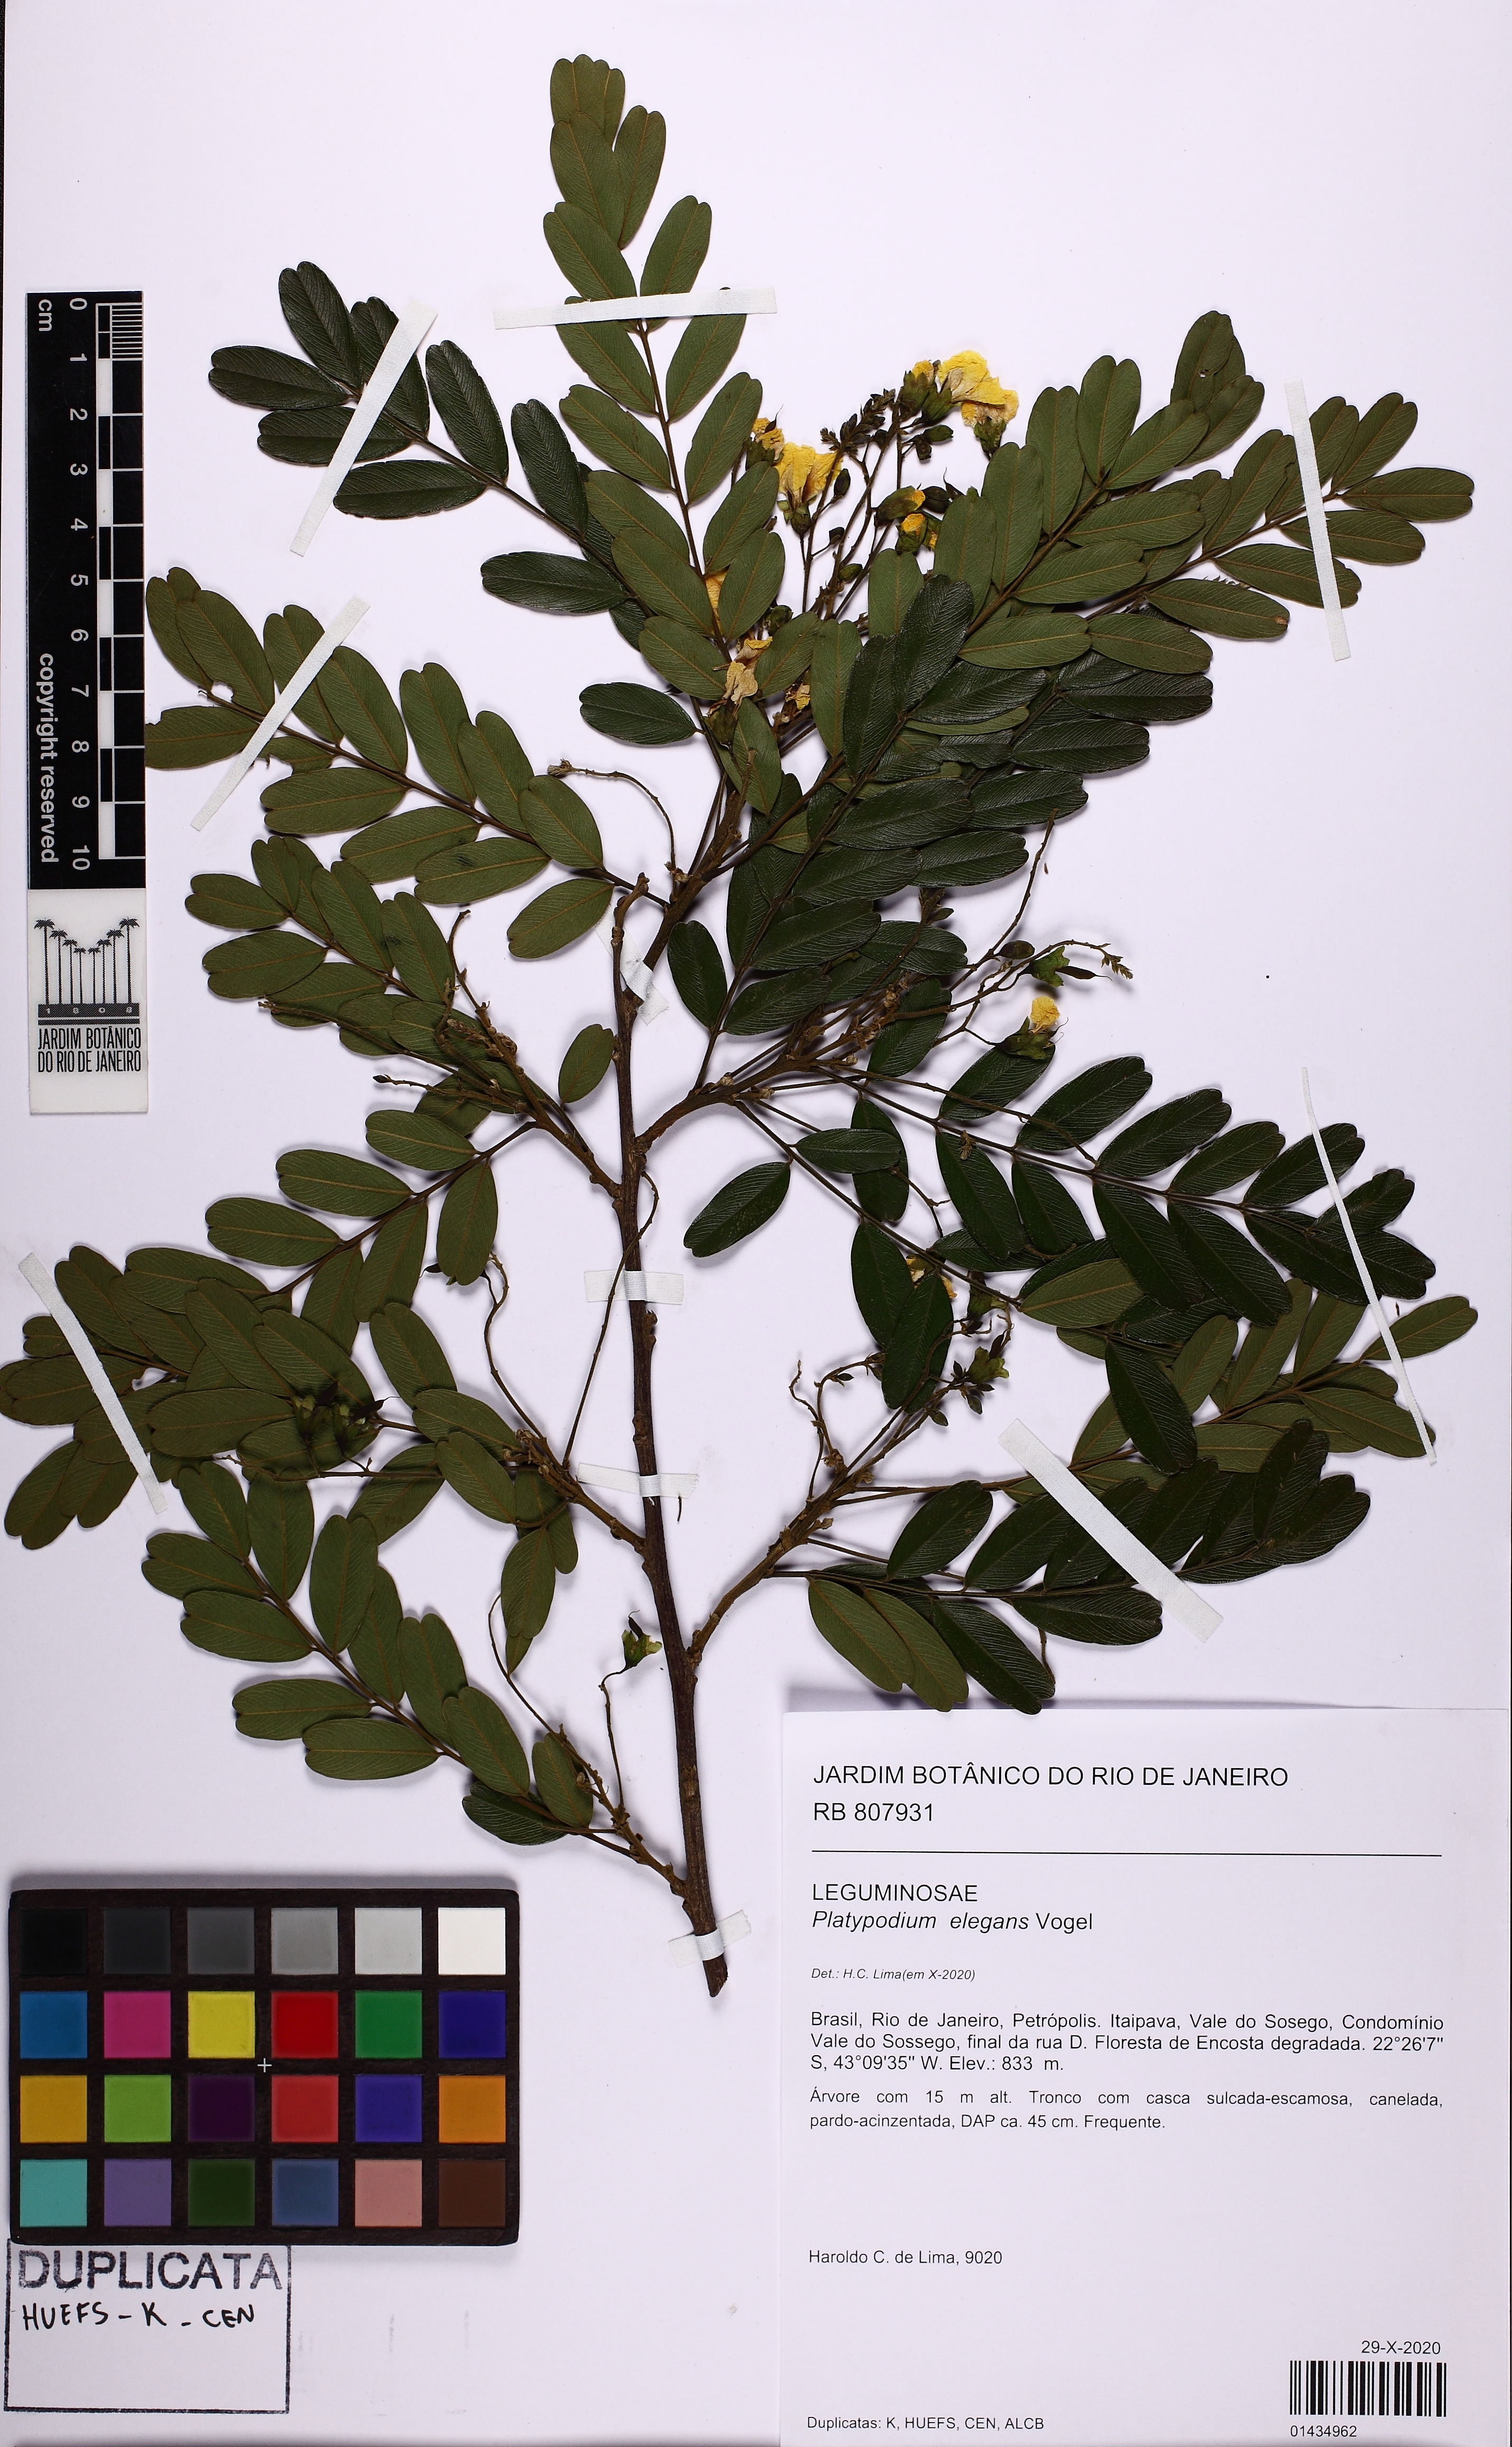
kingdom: Plantae
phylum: Tracheophyta
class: Magnoliopsida
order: Fabales
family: Fabaceae
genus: Platypodium
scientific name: Platypodium elegans
